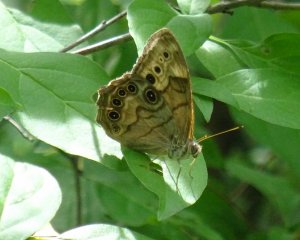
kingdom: Animalia
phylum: Arthropoda
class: Insecta
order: Lepidoptera
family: Nymphalidae
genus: Lethe
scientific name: Lethe anthedon
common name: Northern Pearly-Eye
